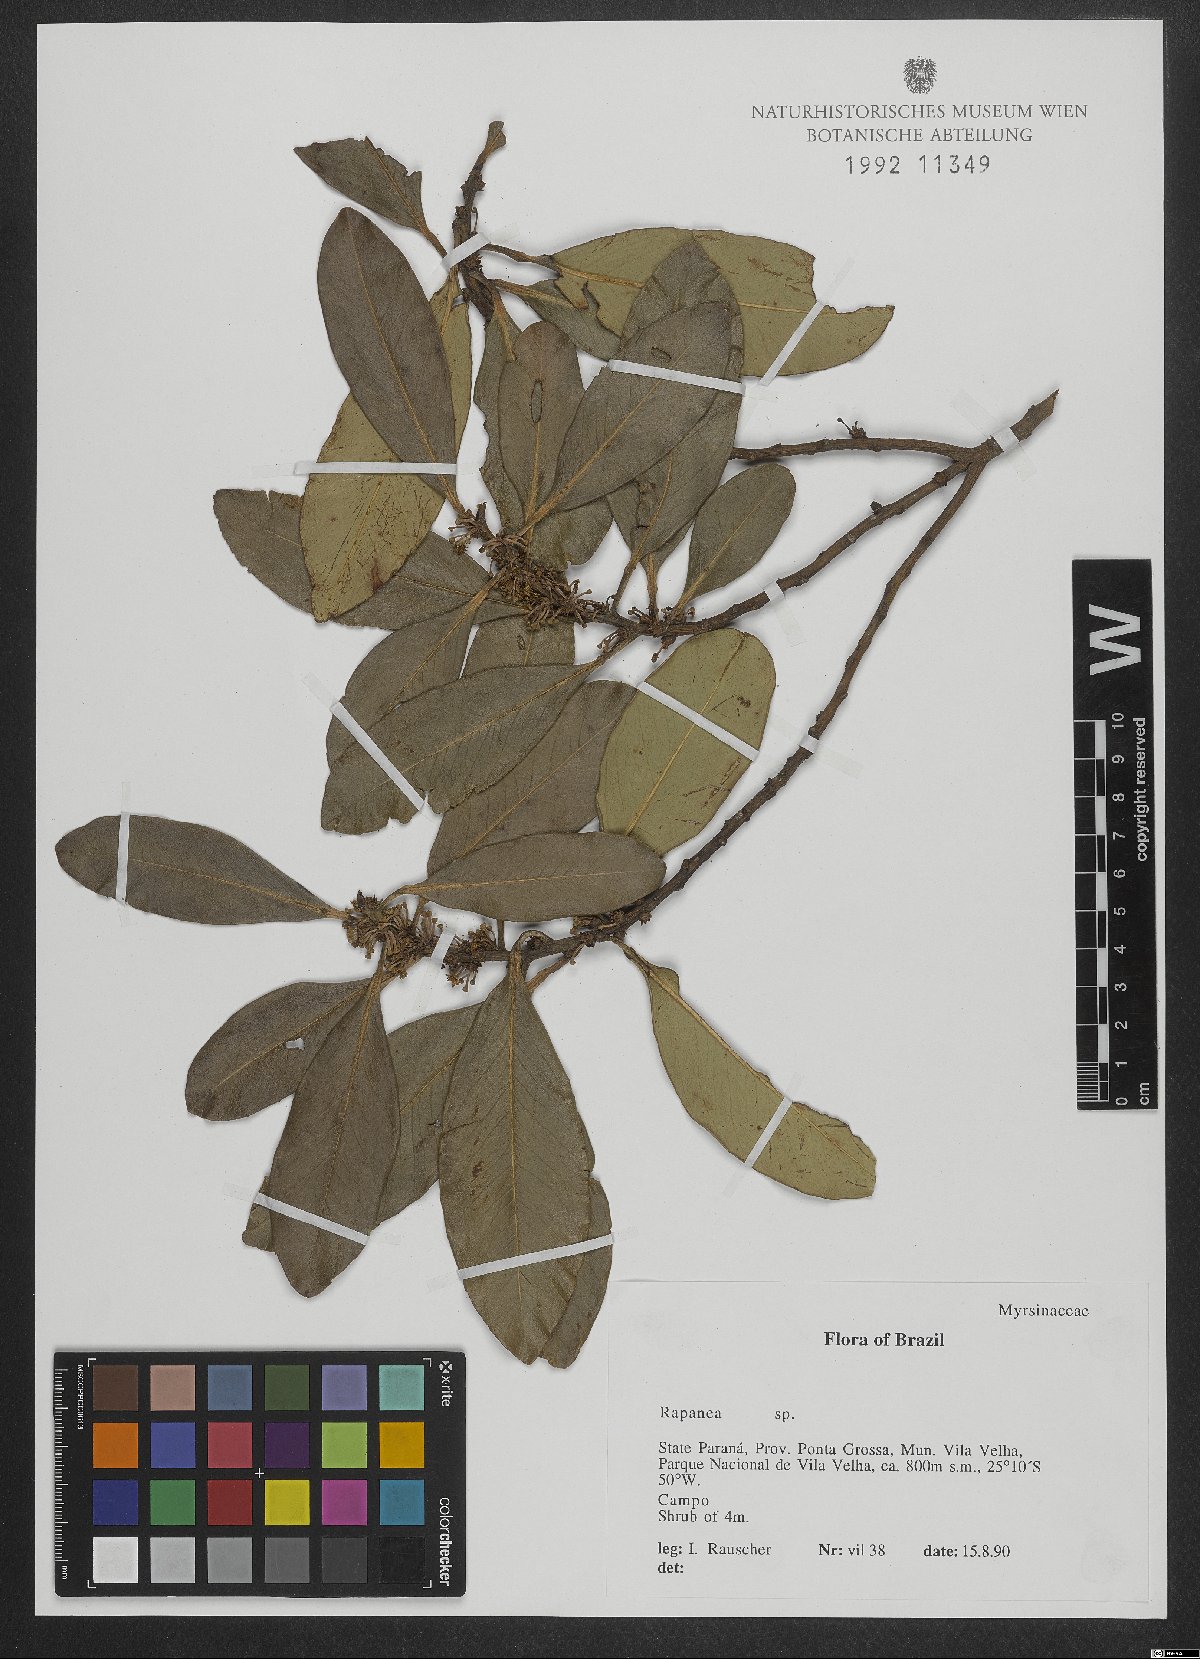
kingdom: Plantae
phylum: Tracheophyta
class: Magnoliopsida
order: Ericales
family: Primulaceae
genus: Myrsine
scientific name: Myrsine
